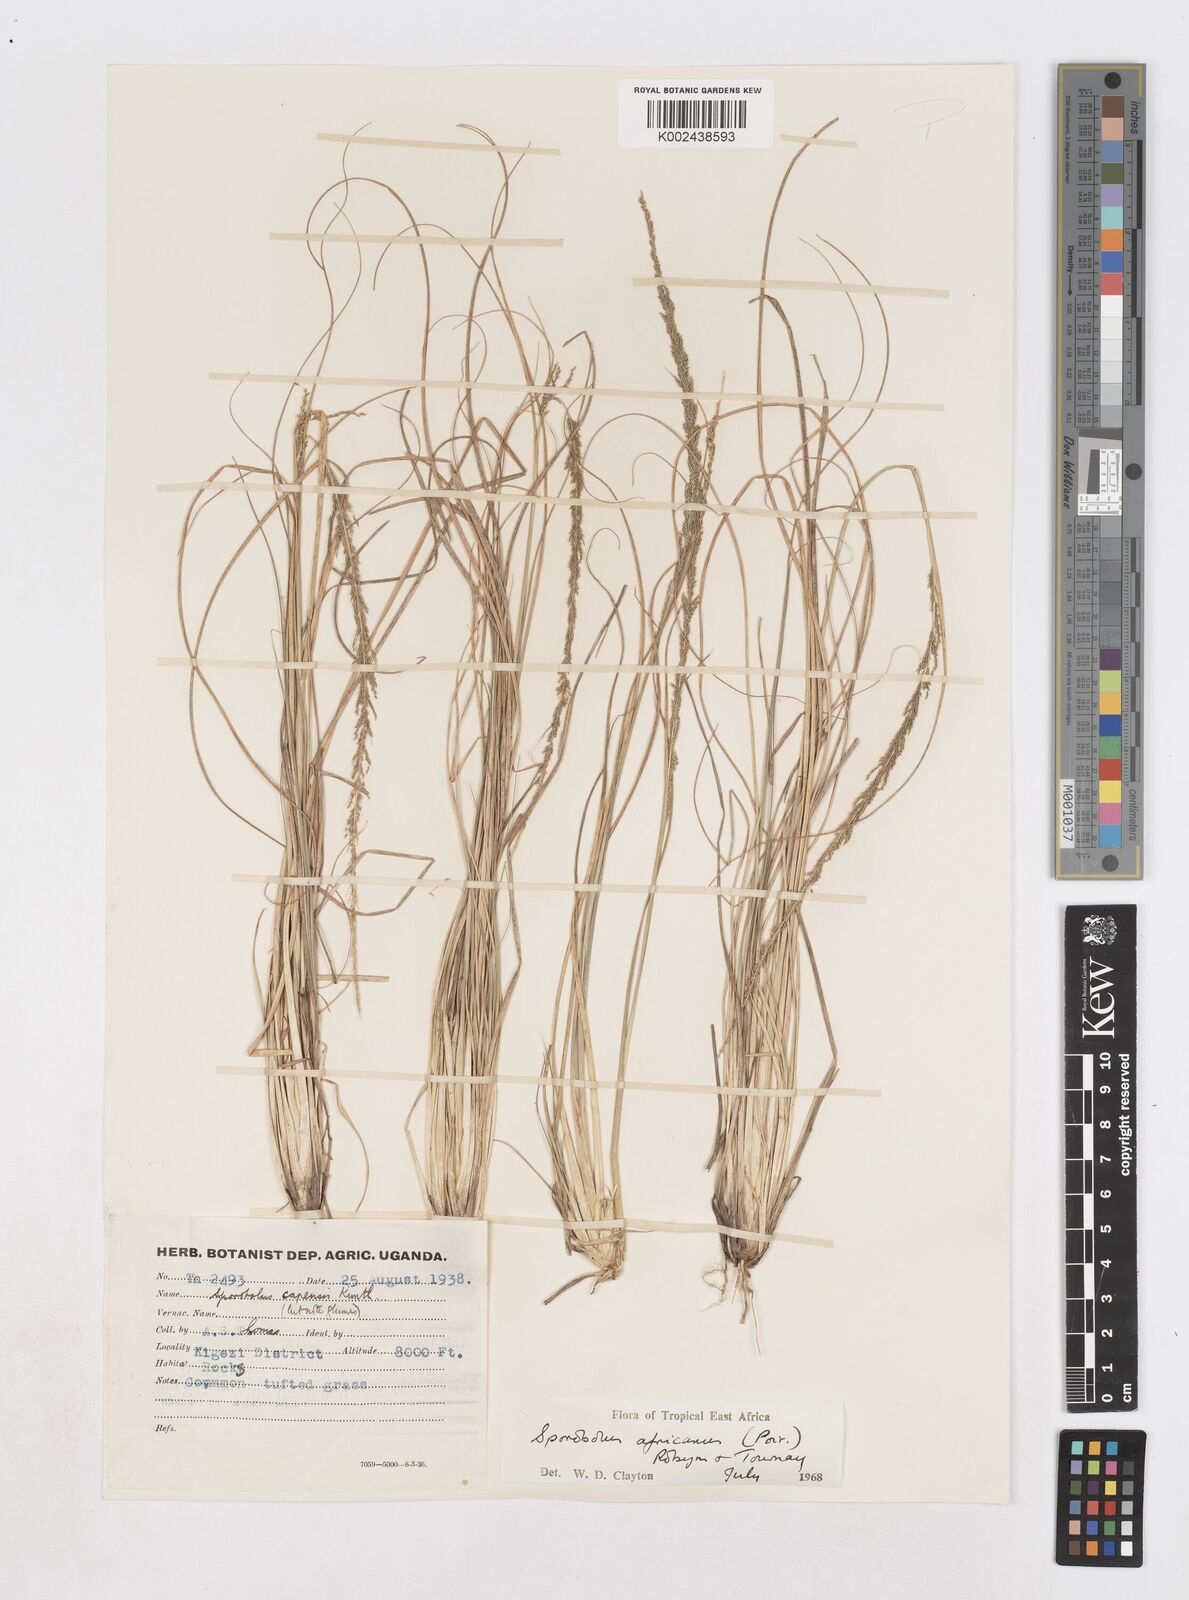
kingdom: Plantae
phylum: Tracheophyta
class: Liliopsida
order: Poales
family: Poaceae
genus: Sporobolus
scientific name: Sporobolus africanus
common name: African dropseed
